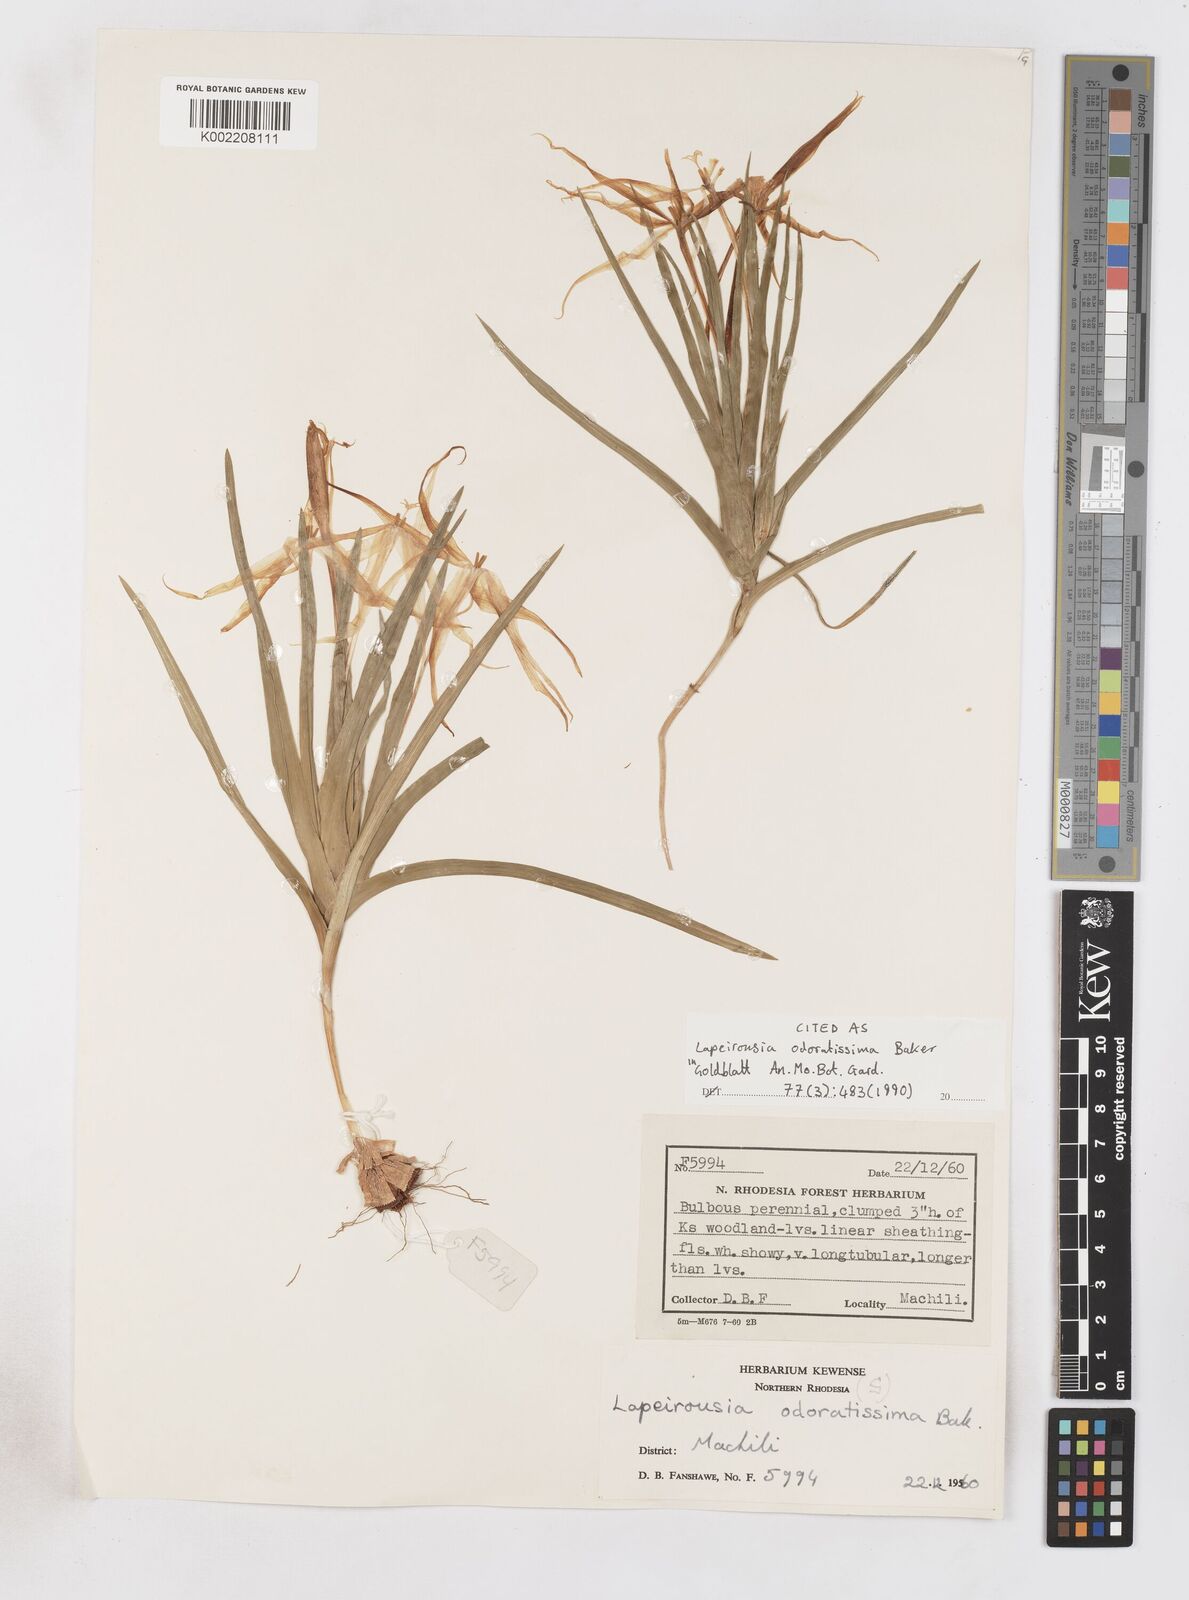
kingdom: Plantae
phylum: Tracheophyta
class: Liliopsida
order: Asparagales
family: Iridaceae
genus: Lapeirousia
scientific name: Lapeirousia odoratissima
